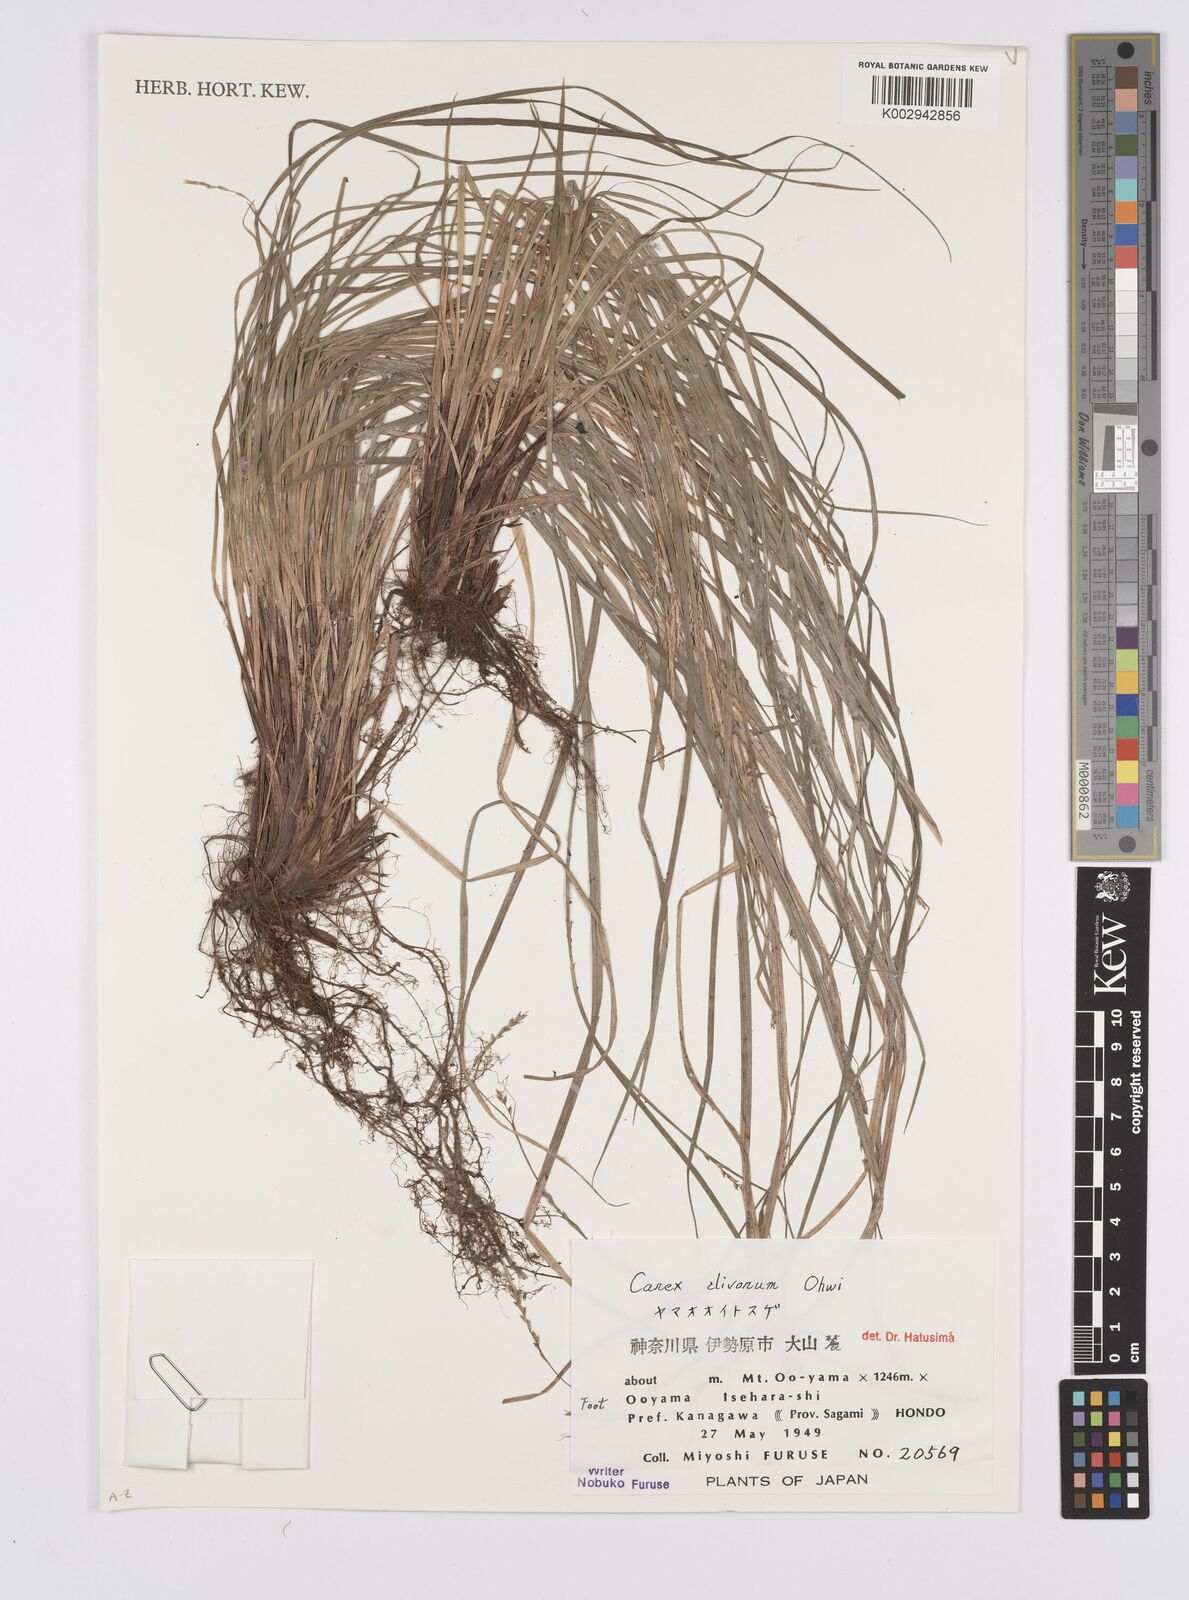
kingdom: Plantae
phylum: Tracheophyta
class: Liliopsida
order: Poales
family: Cyperaceae
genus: Carex
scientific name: Carex clivorum
